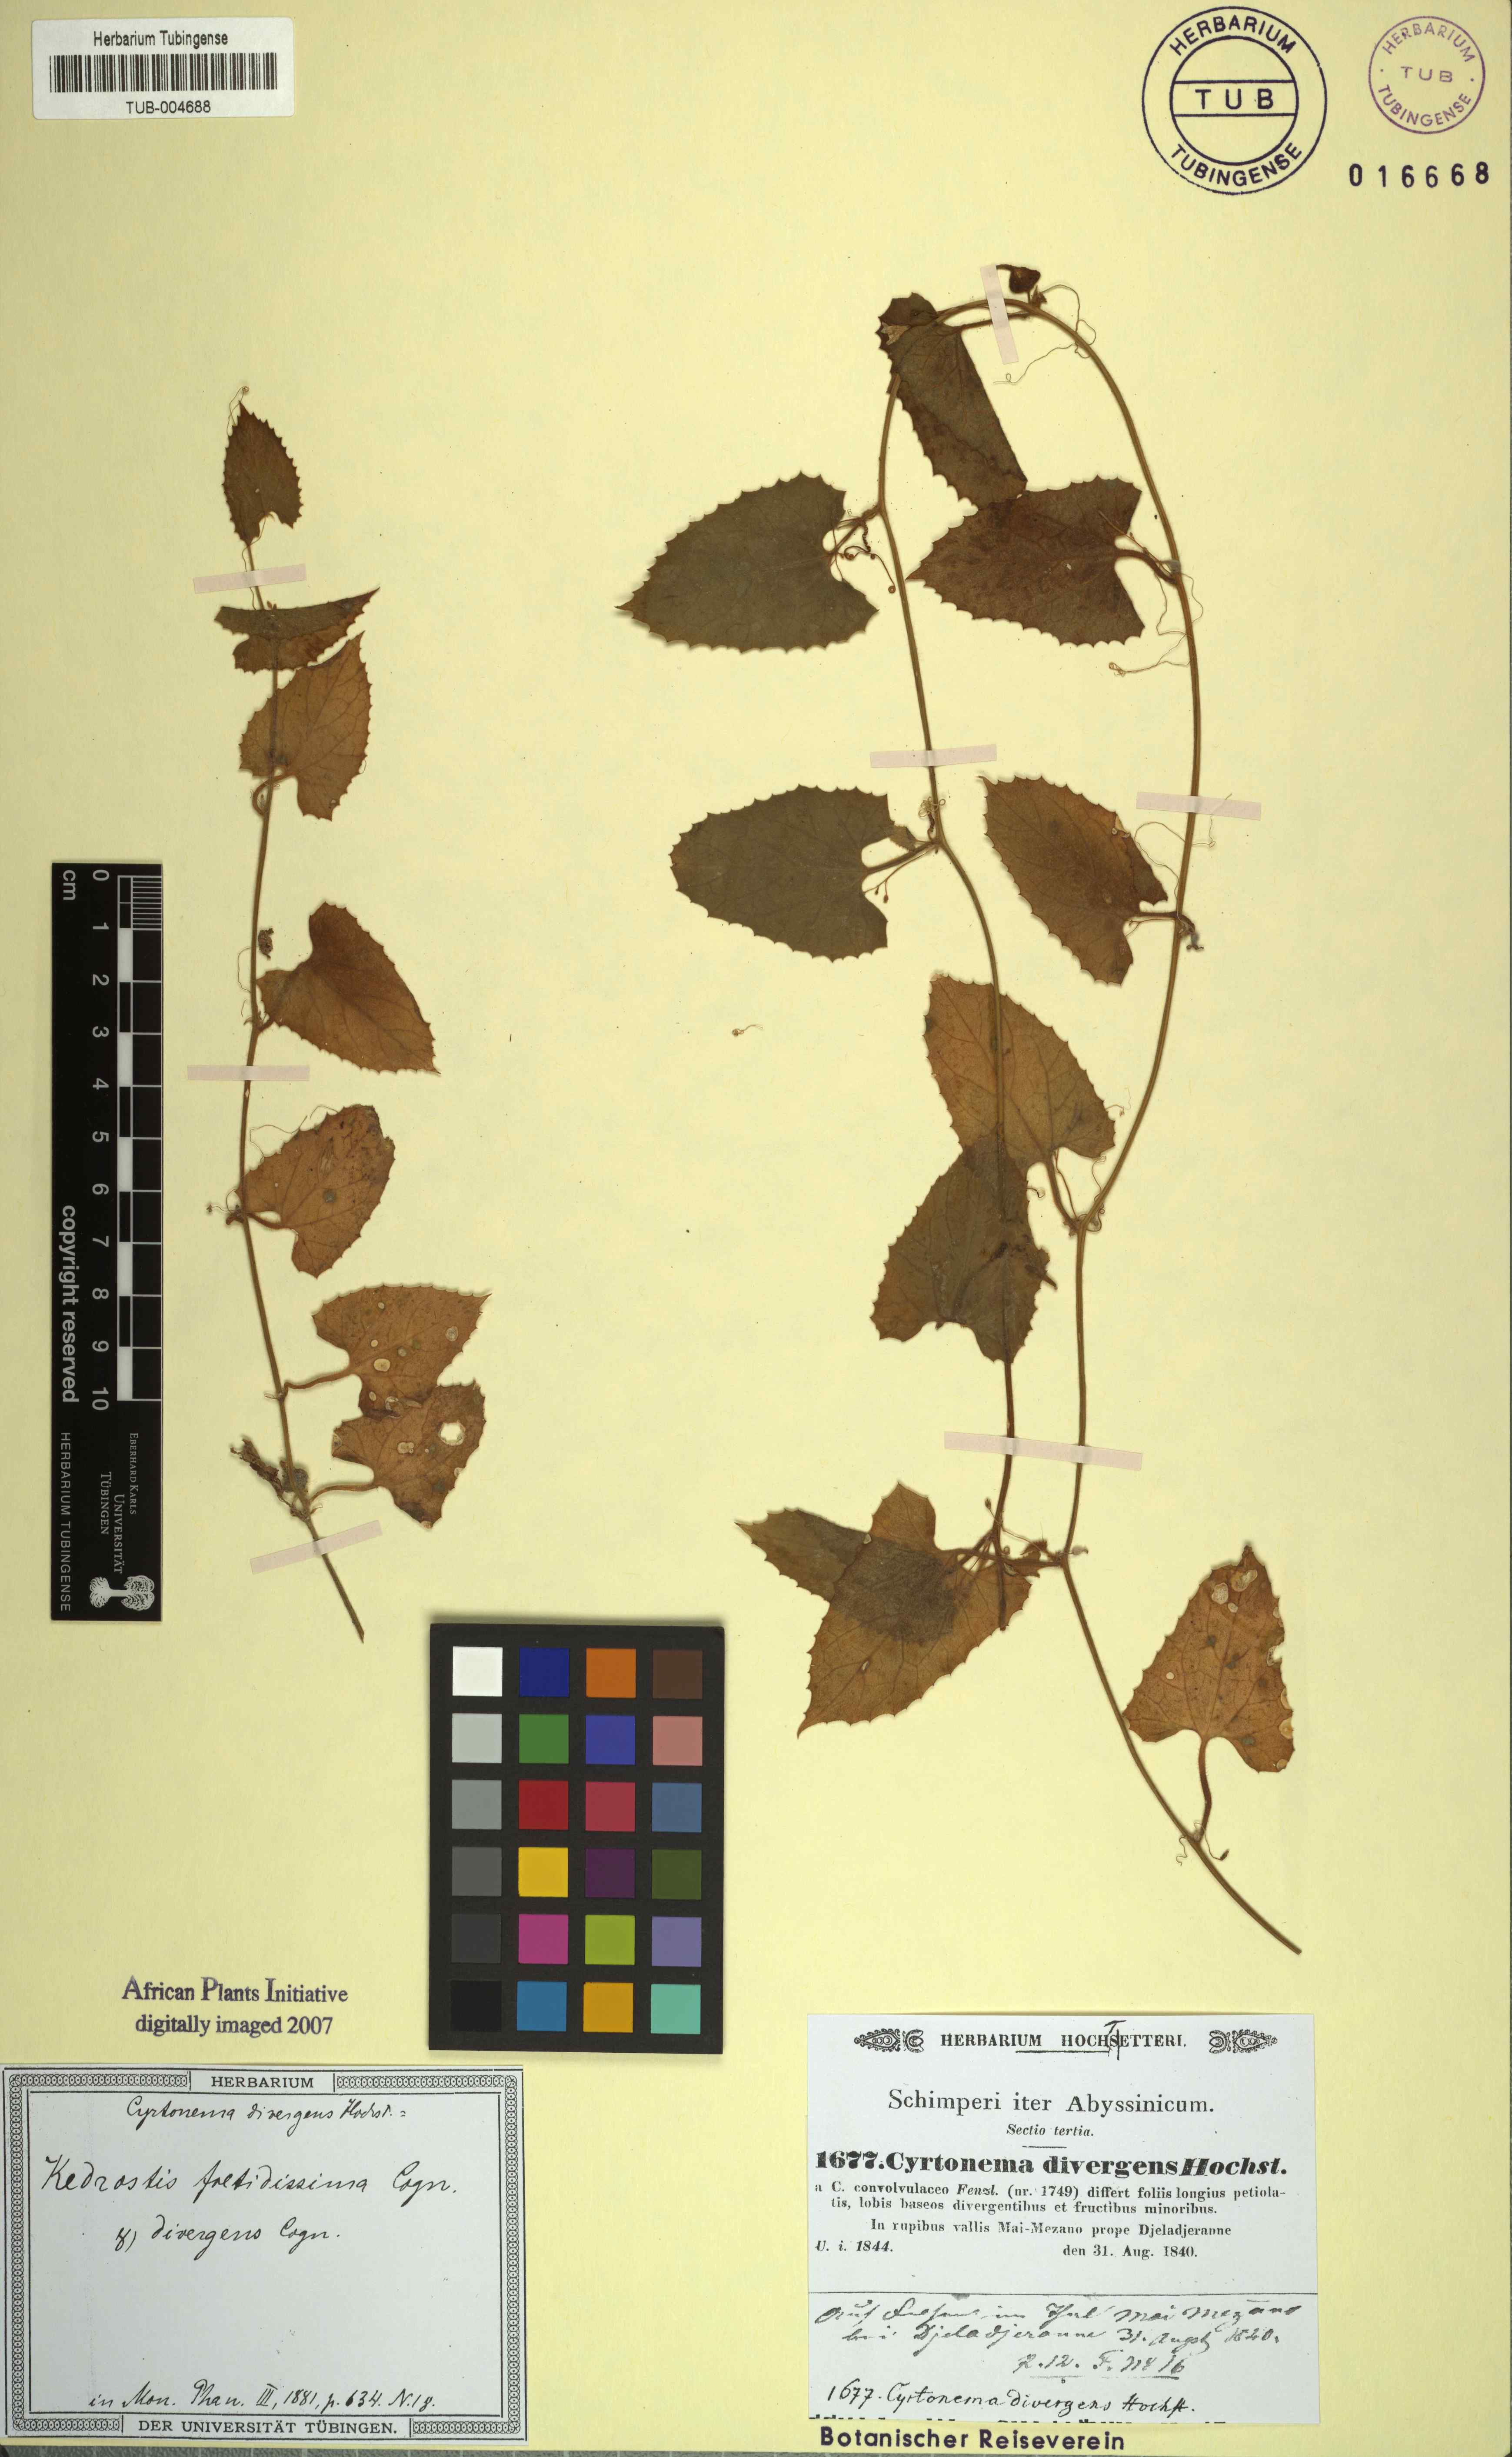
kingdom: Plantae
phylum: Tracheophyta
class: Magnoliopsida
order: Cucurbitales
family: Cucurbitaceae
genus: Kedrostis
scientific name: Kedrostis foetidissima
